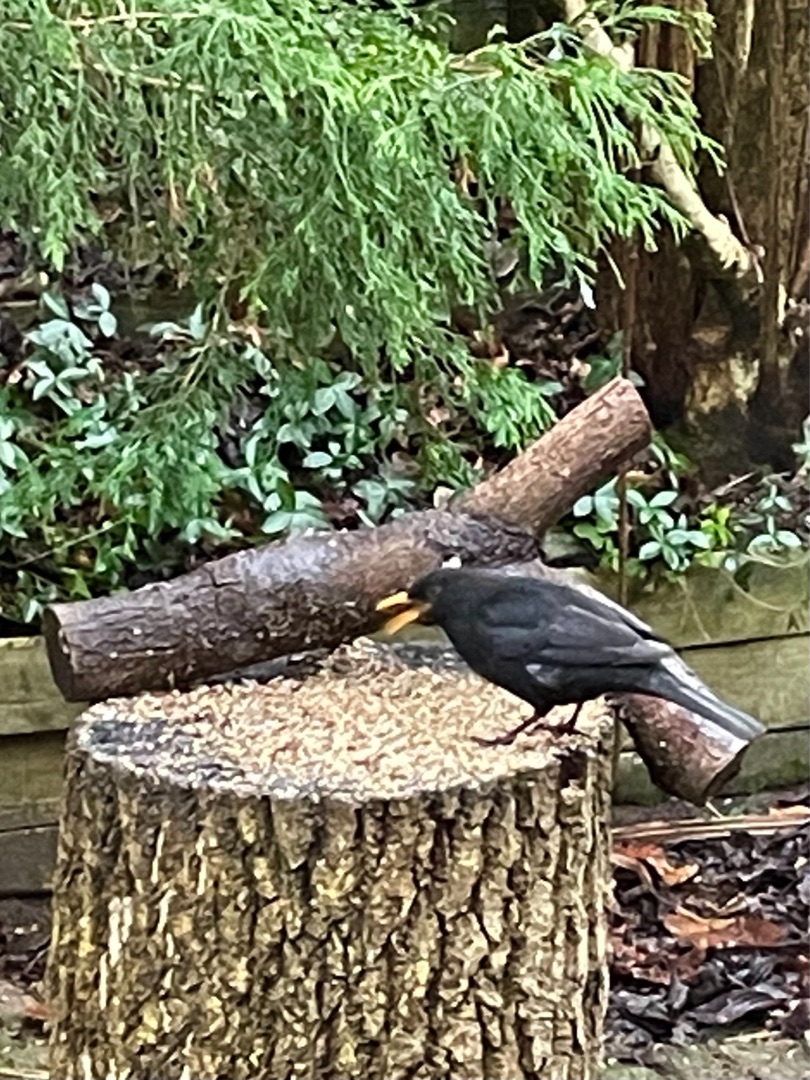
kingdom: Animalia
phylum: Chordata
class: Aves
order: Passeriformes
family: Turdidae
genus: Turdus
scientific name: Turdus merula
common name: Solsort
